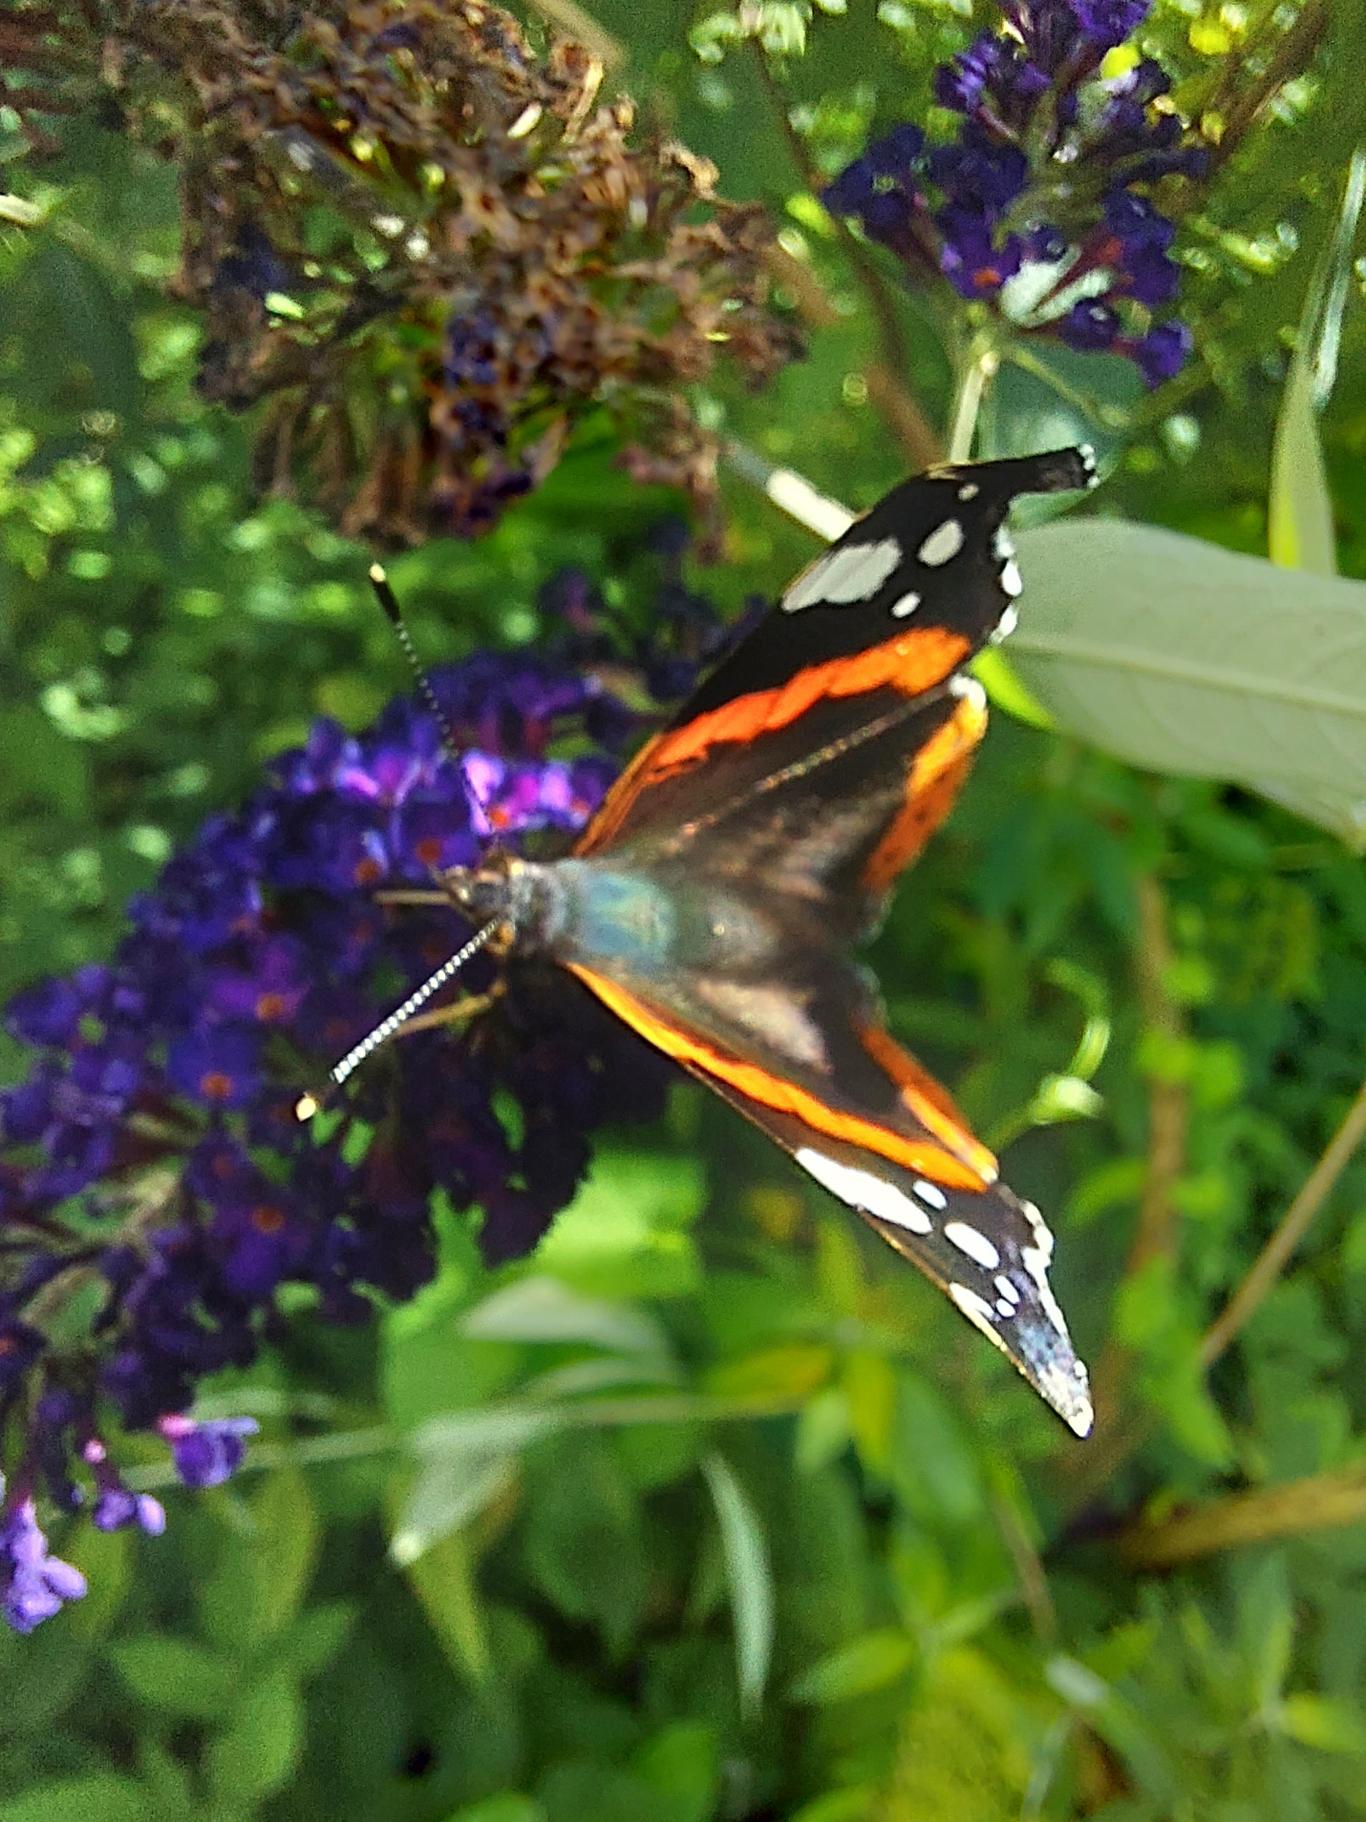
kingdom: Animalia
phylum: Arthropoda
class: Insecta
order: Lepidoptera
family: Nymphalidae
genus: Vanessa
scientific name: Vanessa atalanta
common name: Admiral
